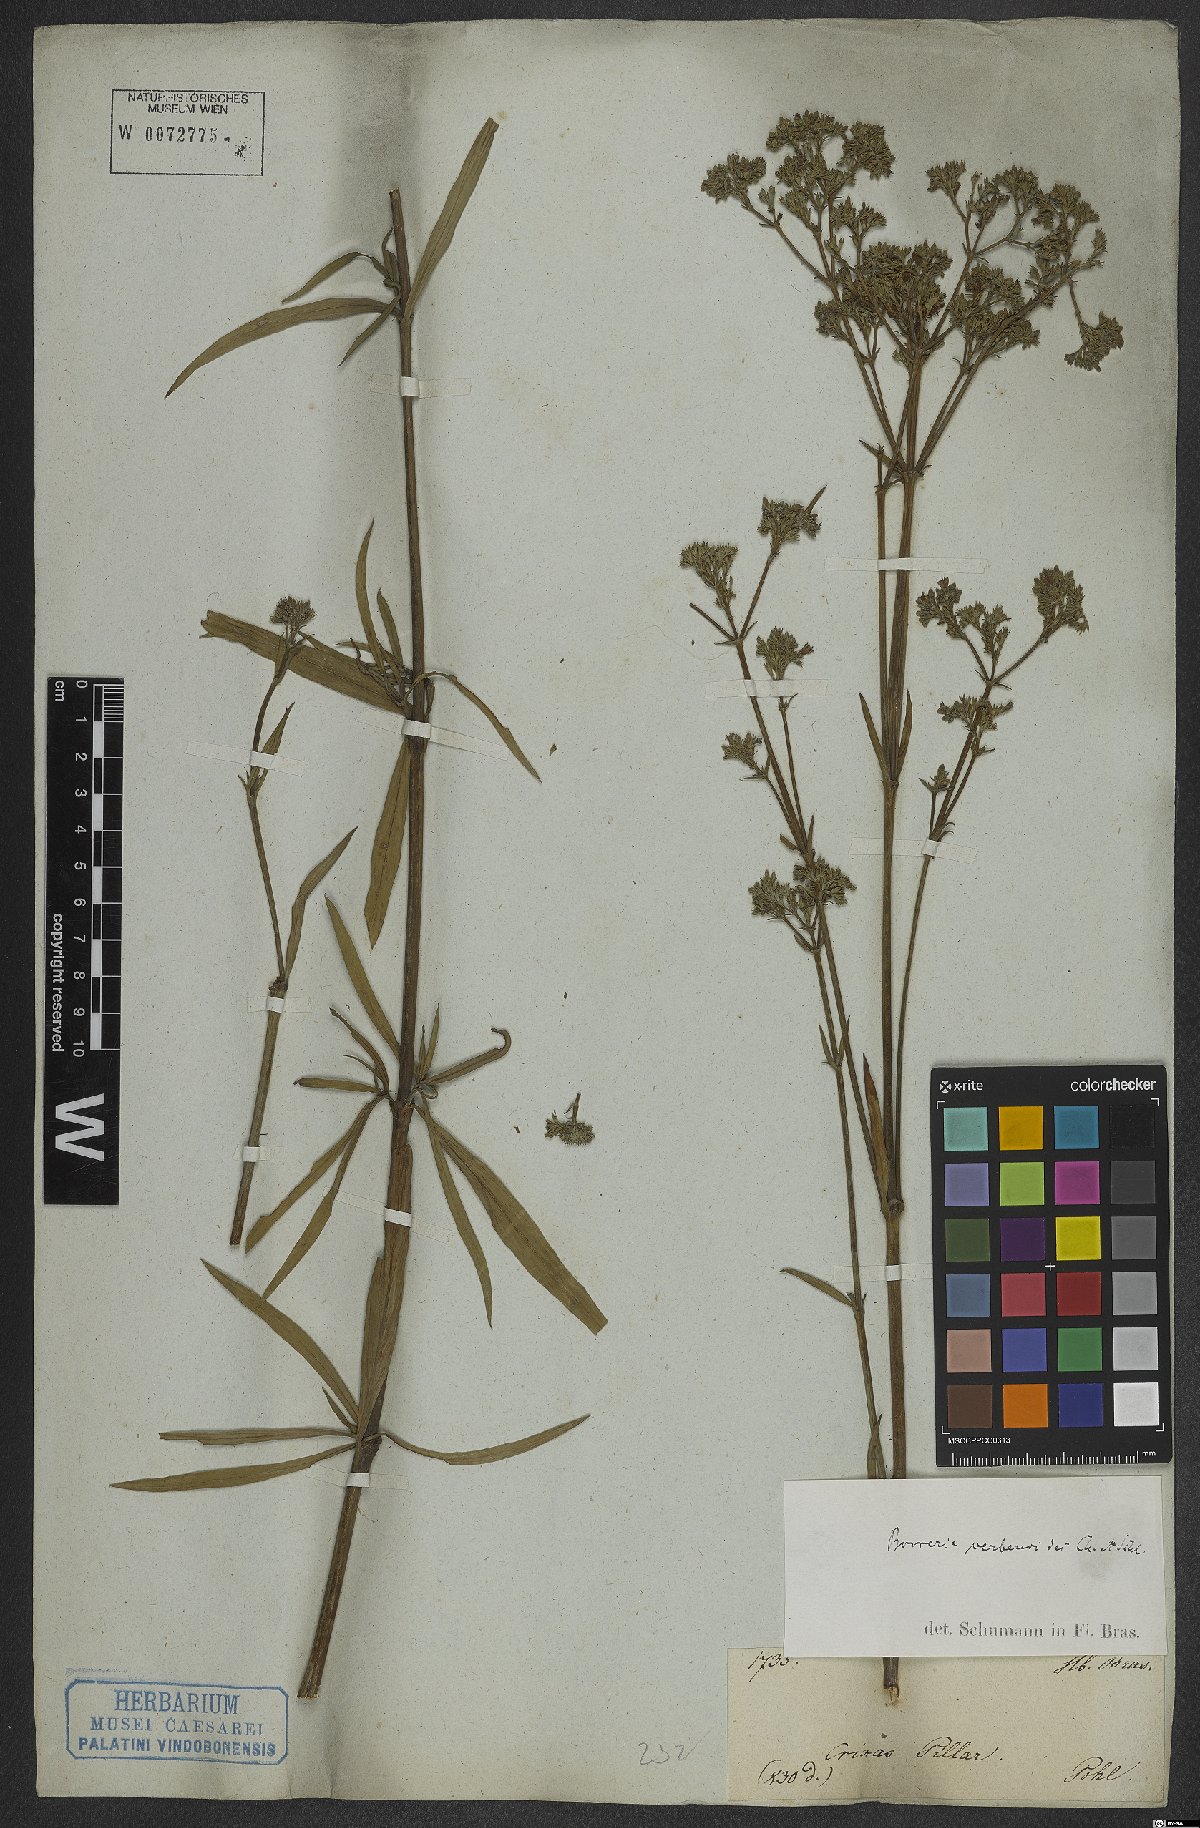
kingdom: Plantae
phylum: Tracheophyta
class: Magnoliopsida
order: Gentianales
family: Rubiaceae
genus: Galianthe
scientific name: Galianthe verbenoides
